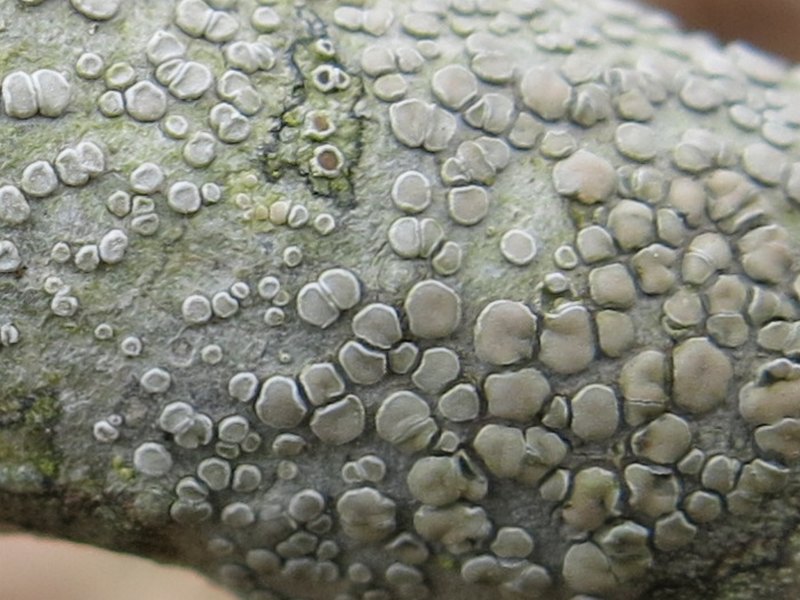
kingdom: Fungi
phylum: Ascomycota
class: Lecanoromycetes
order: Lecanorales
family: Lecanoraceae
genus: Glaucomaria
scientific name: Glaucomaria carpinea
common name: hviddugget kantskivelav
